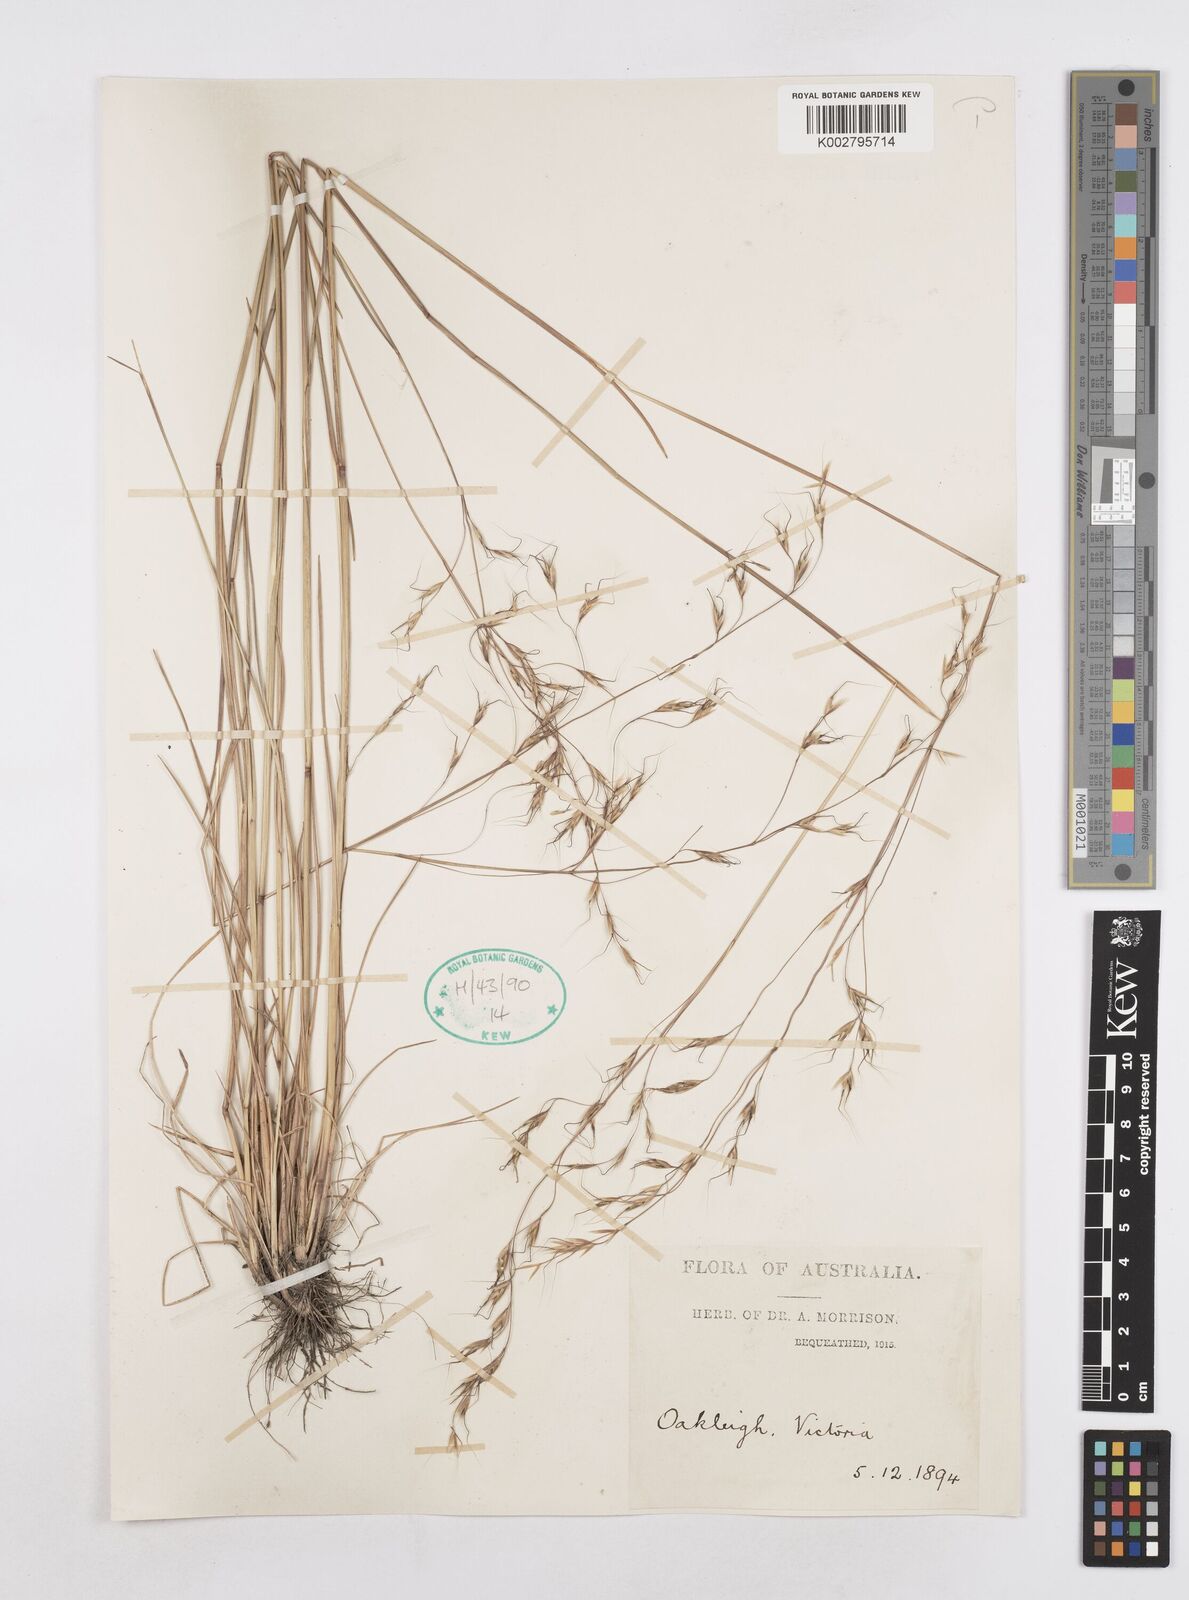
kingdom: Plantae
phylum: Tracheophyta
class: Liliopsida
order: Poales
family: Poaceae
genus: Helictotrichon
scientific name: Helictotrichon
